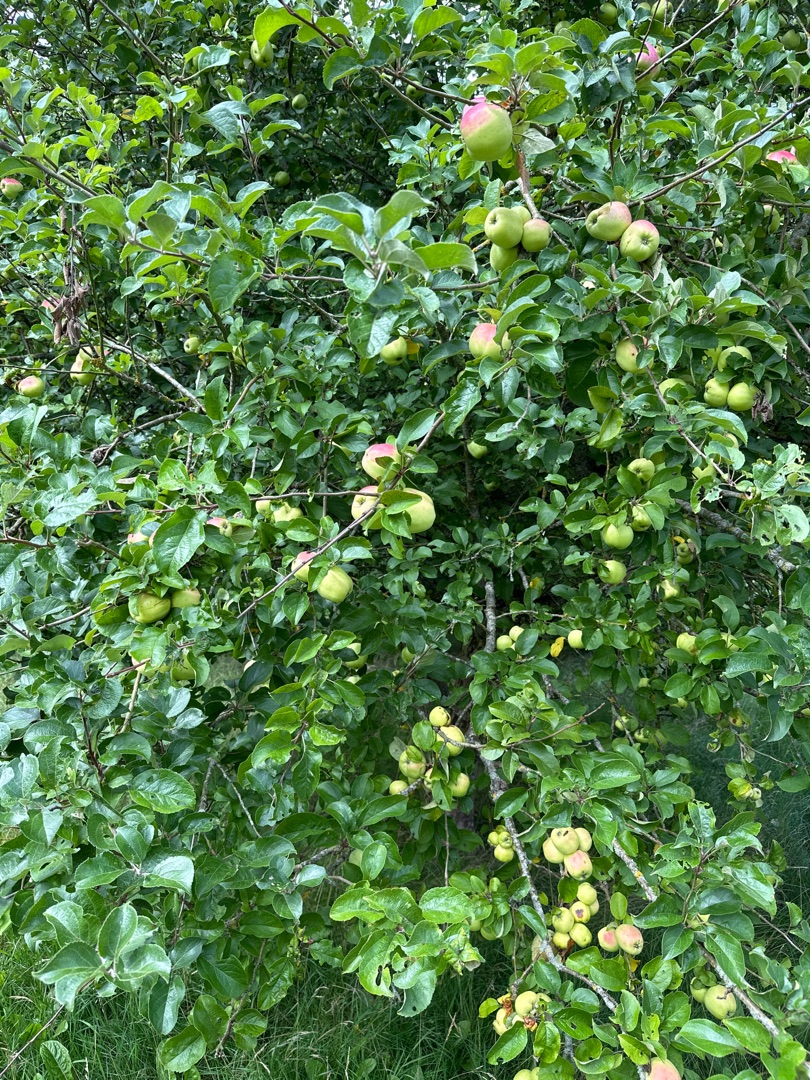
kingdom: Plantae
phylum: Tracheophyta
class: Magnoliopsida
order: Rosales
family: Rosaceae
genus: Malus
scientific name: Malus domestica
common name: Sød-æble
